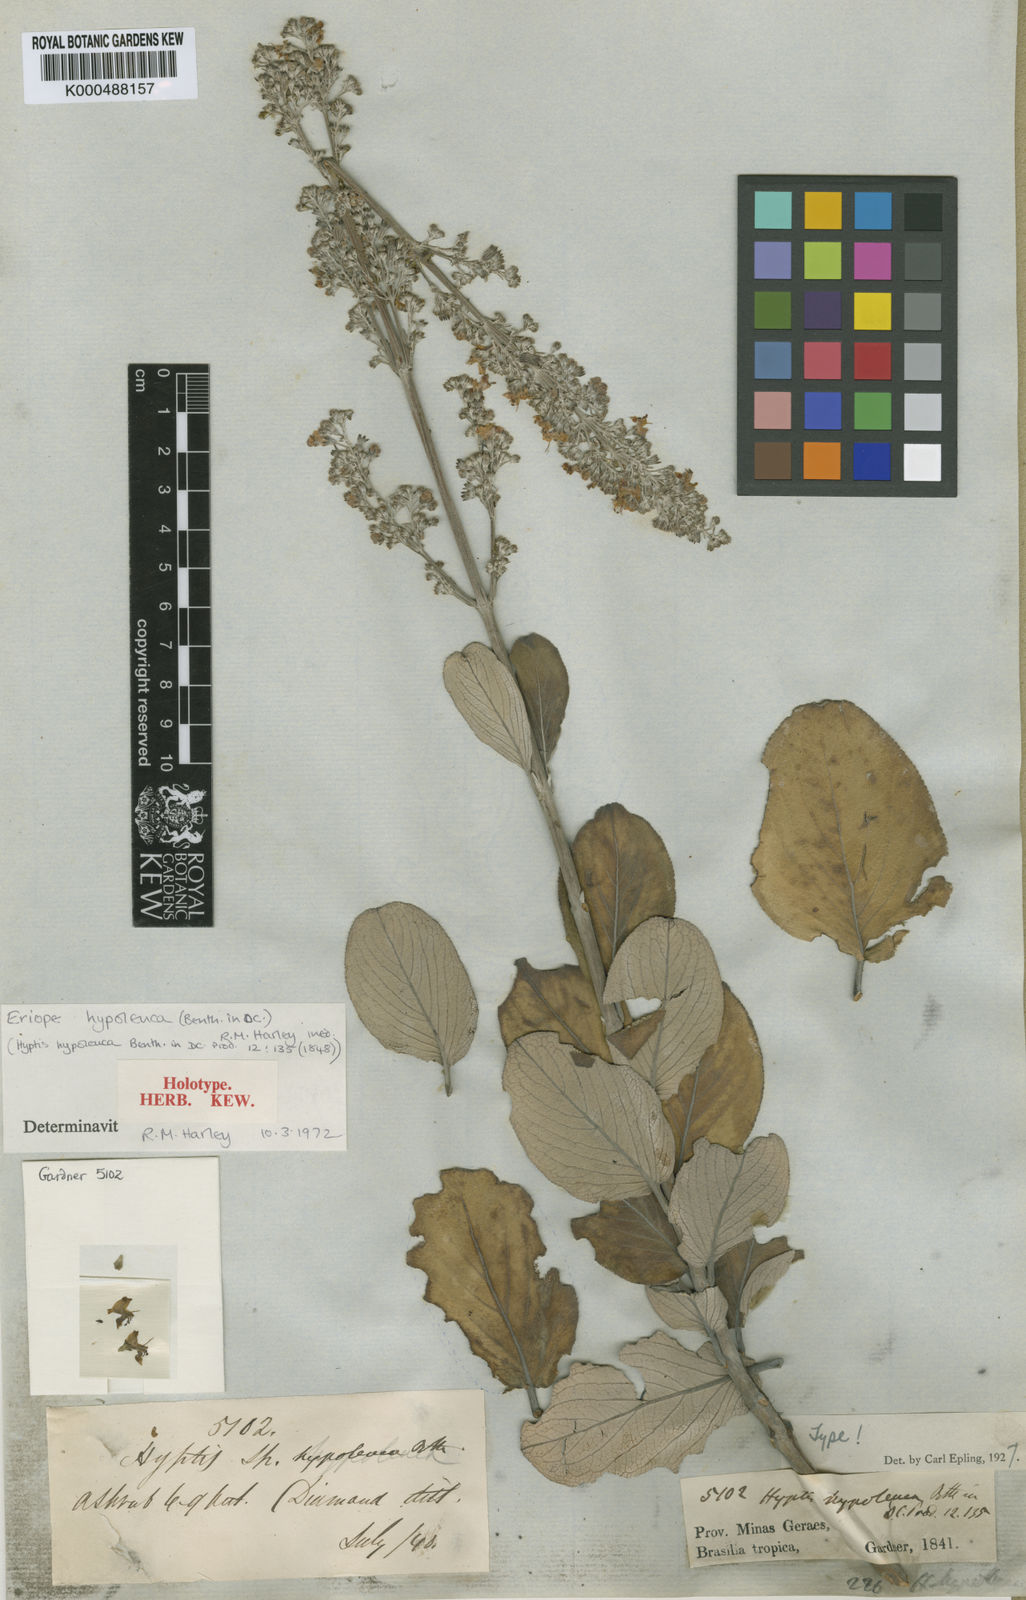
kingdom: Plantae
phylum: Tracheophyta
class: Magnoliopsida
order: Lamiales
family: Lamiaceae
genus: Eriope
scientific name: Eriope hypoleuca
